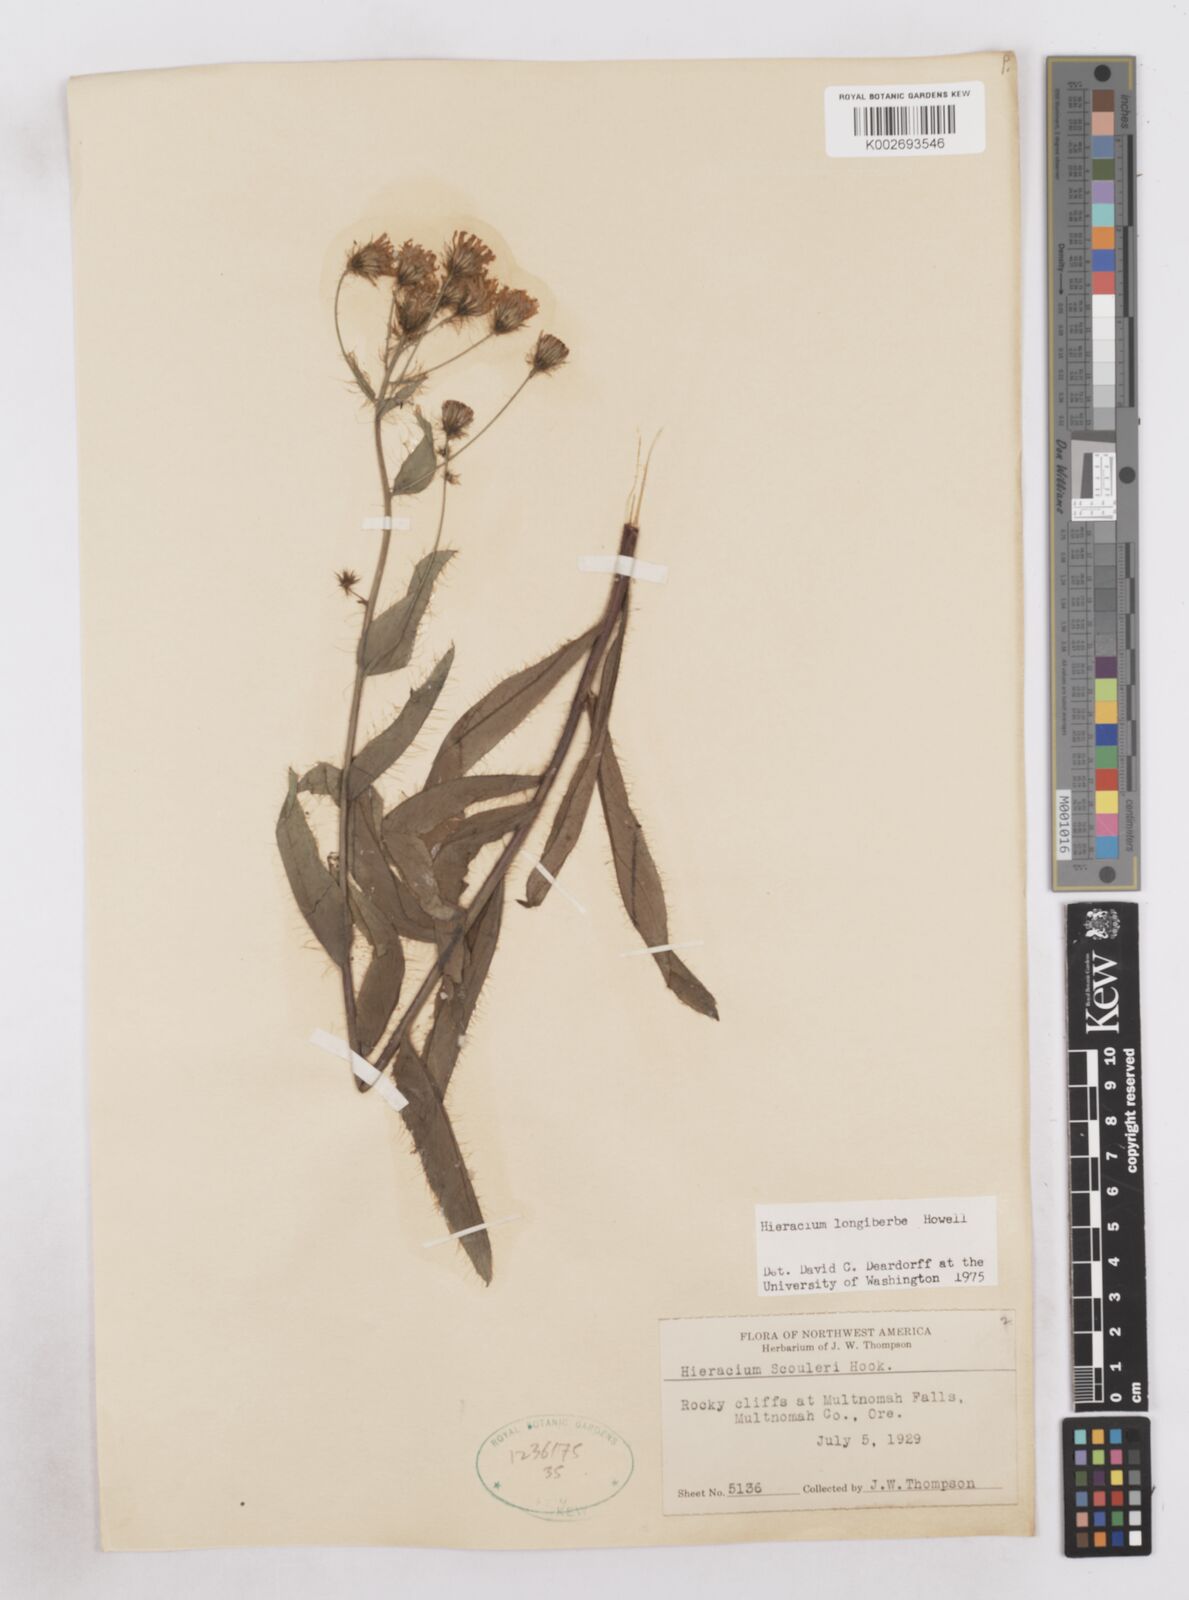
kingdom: Plantae
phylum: Tracheophyta
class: Magnoliopsida
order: Asterales
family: Asteraceae
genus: Hieracium
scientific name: Hieracium longiberbe
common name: Long-bearded hawkweed
